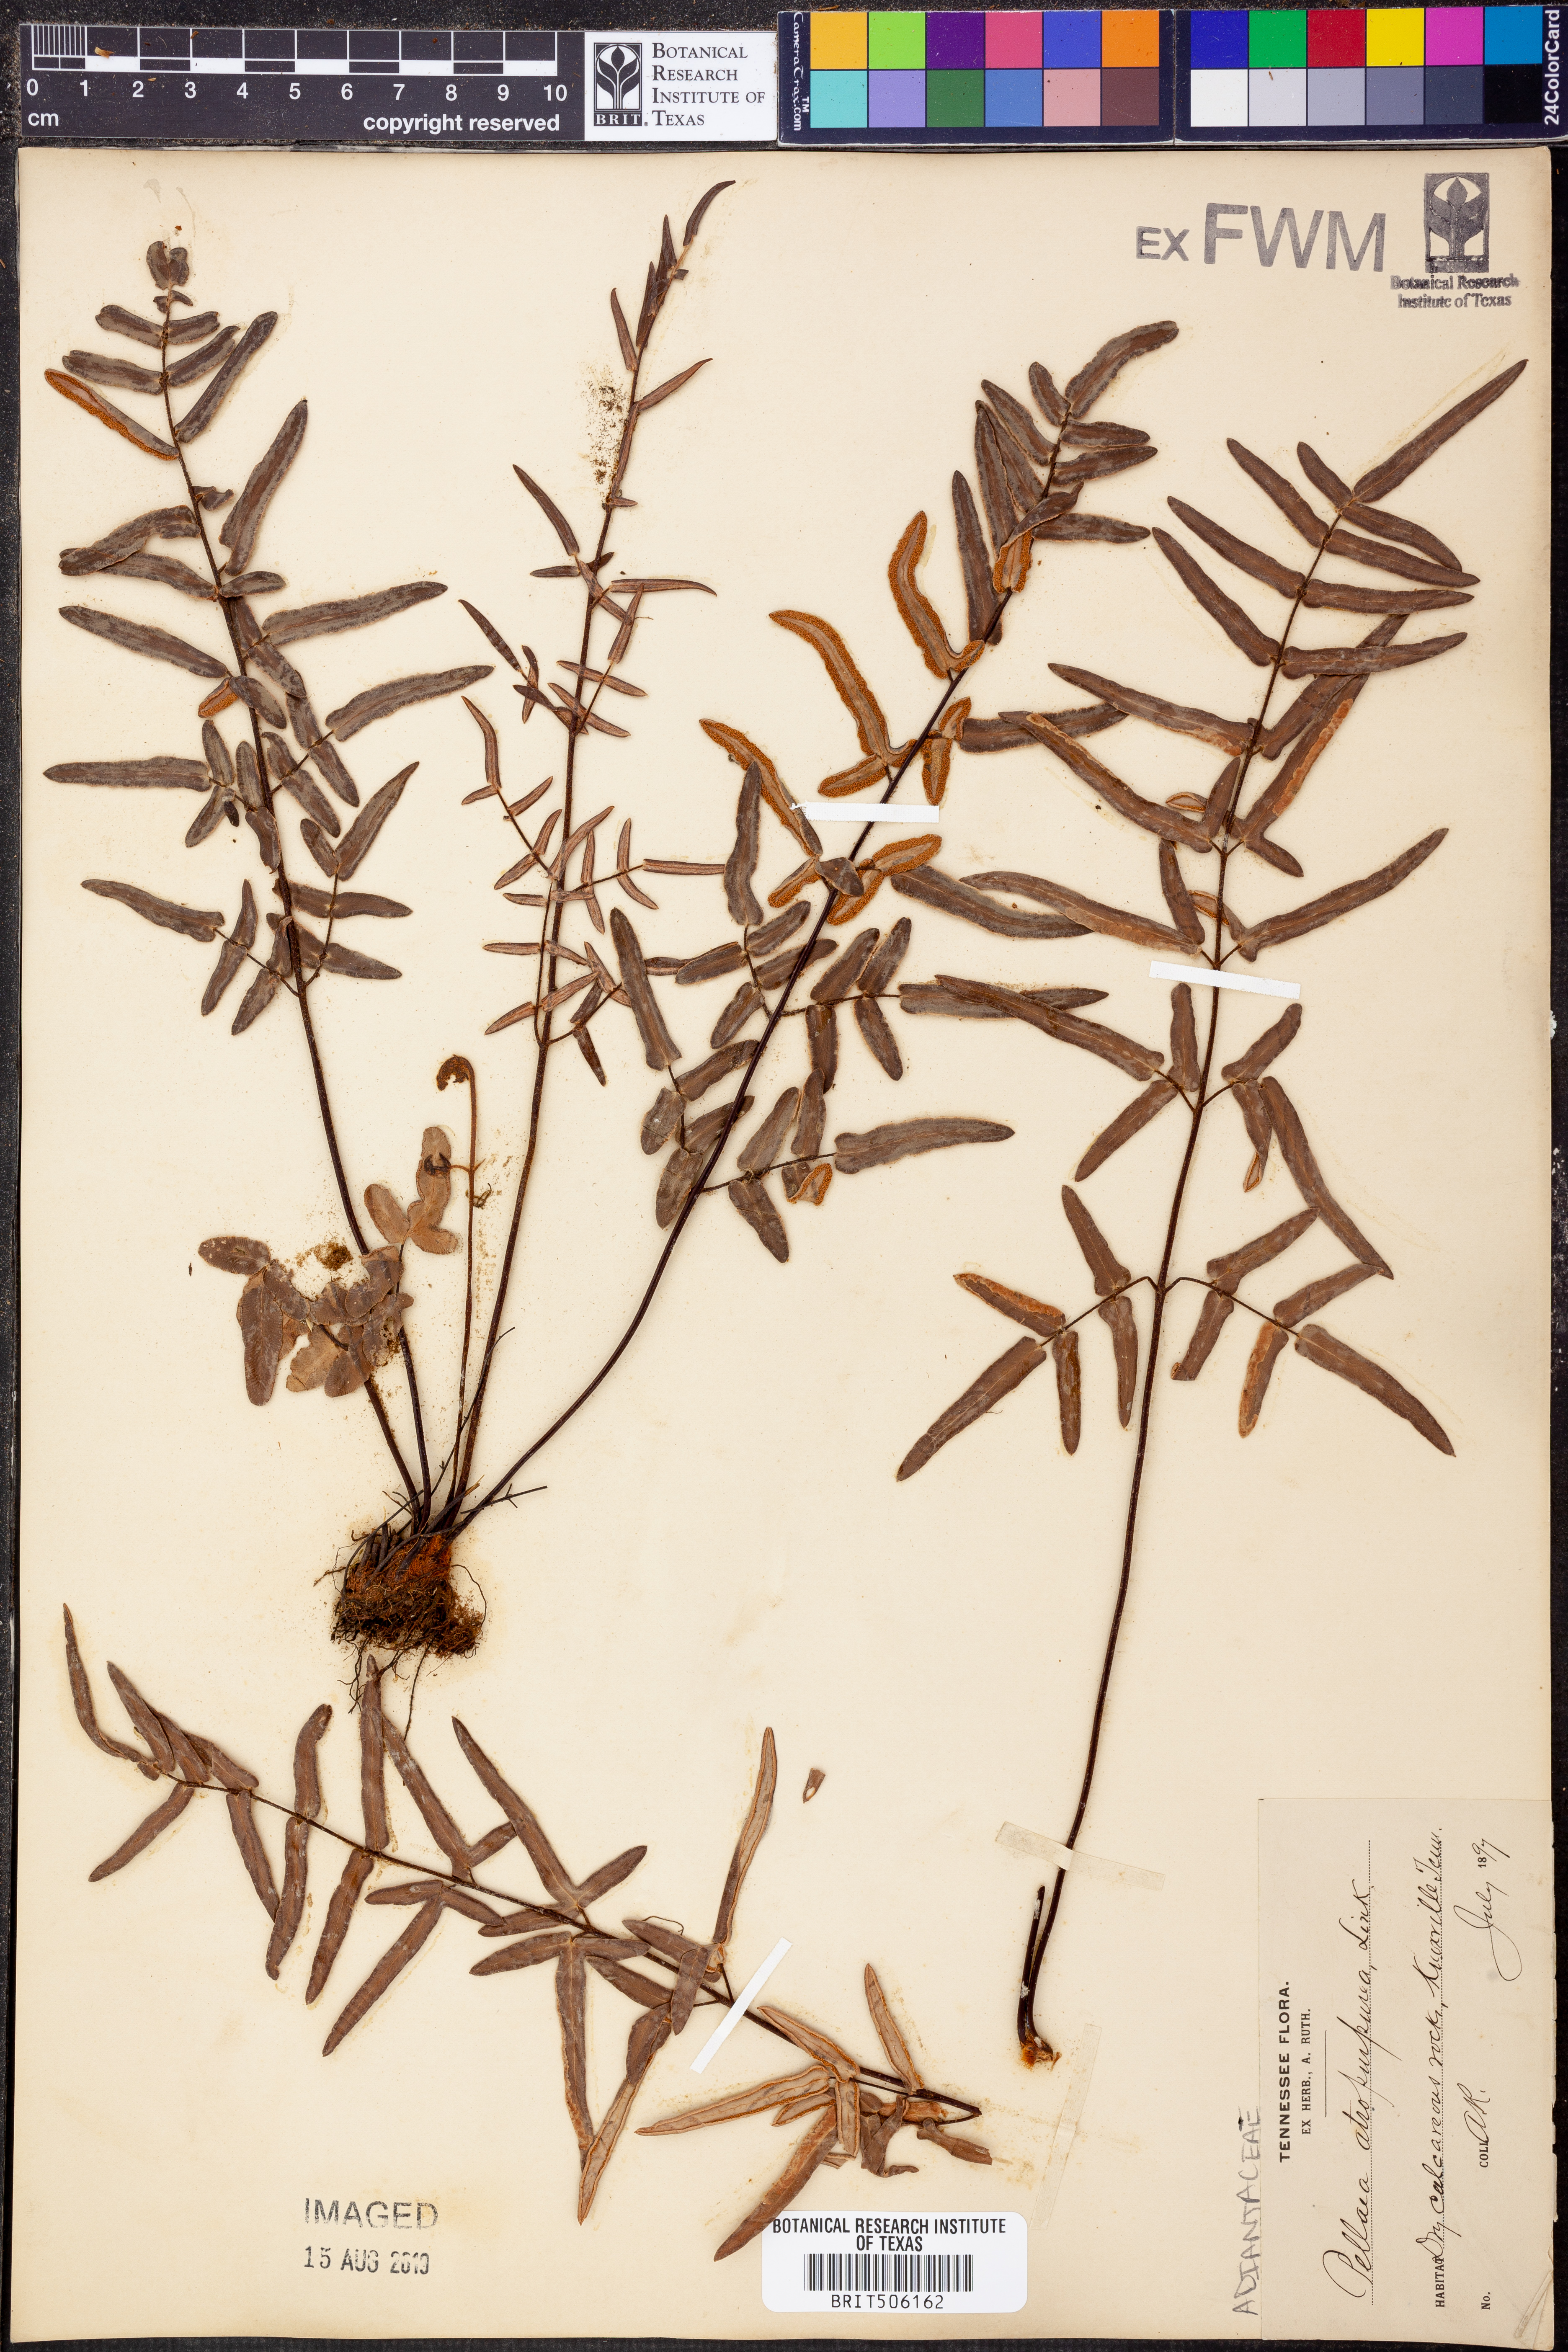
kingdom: Plantae
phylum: Tracheophyta
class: Polypodiopsida
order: Polypodiales
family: Pteridaceae
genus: Pellaea
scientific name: Pellaea atropurpurea
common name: Hairy cliffbrake
